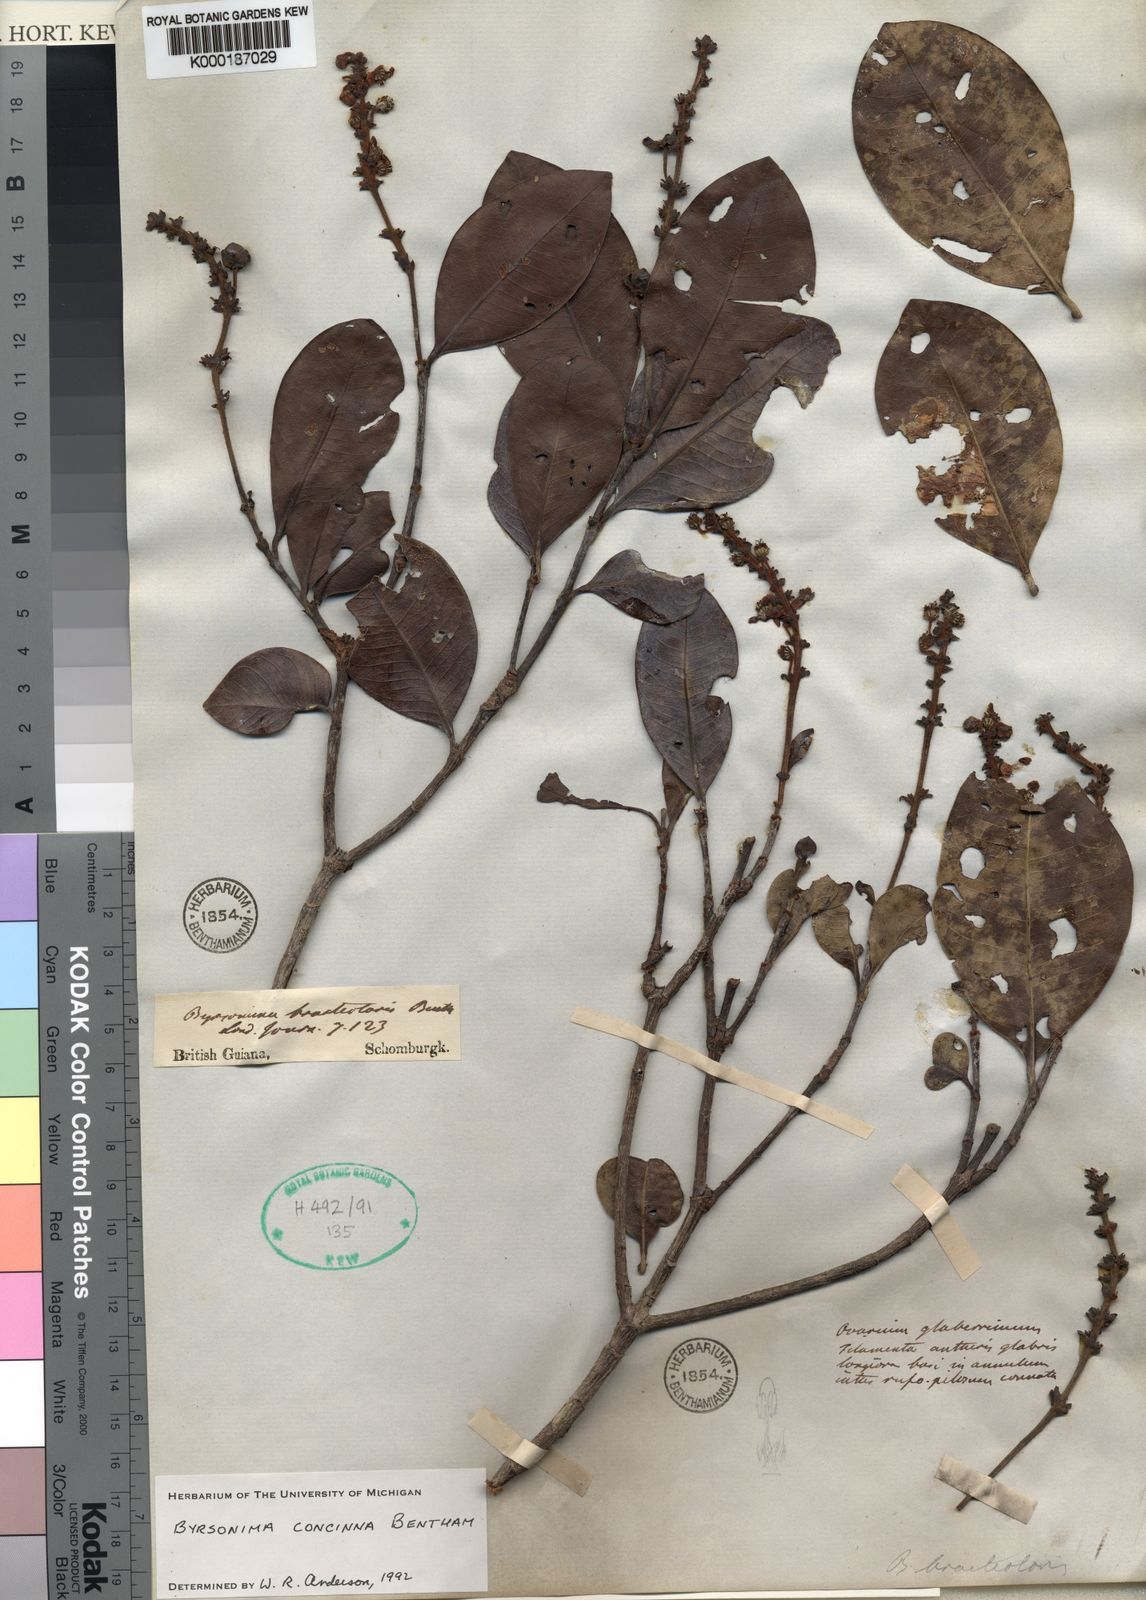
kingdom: Plantae
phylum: Tracheophyta
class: Magnoliopsida
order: Malpighiales
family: Malpighiaceae
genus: Byrsonima
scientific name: Byrsonima concinna
